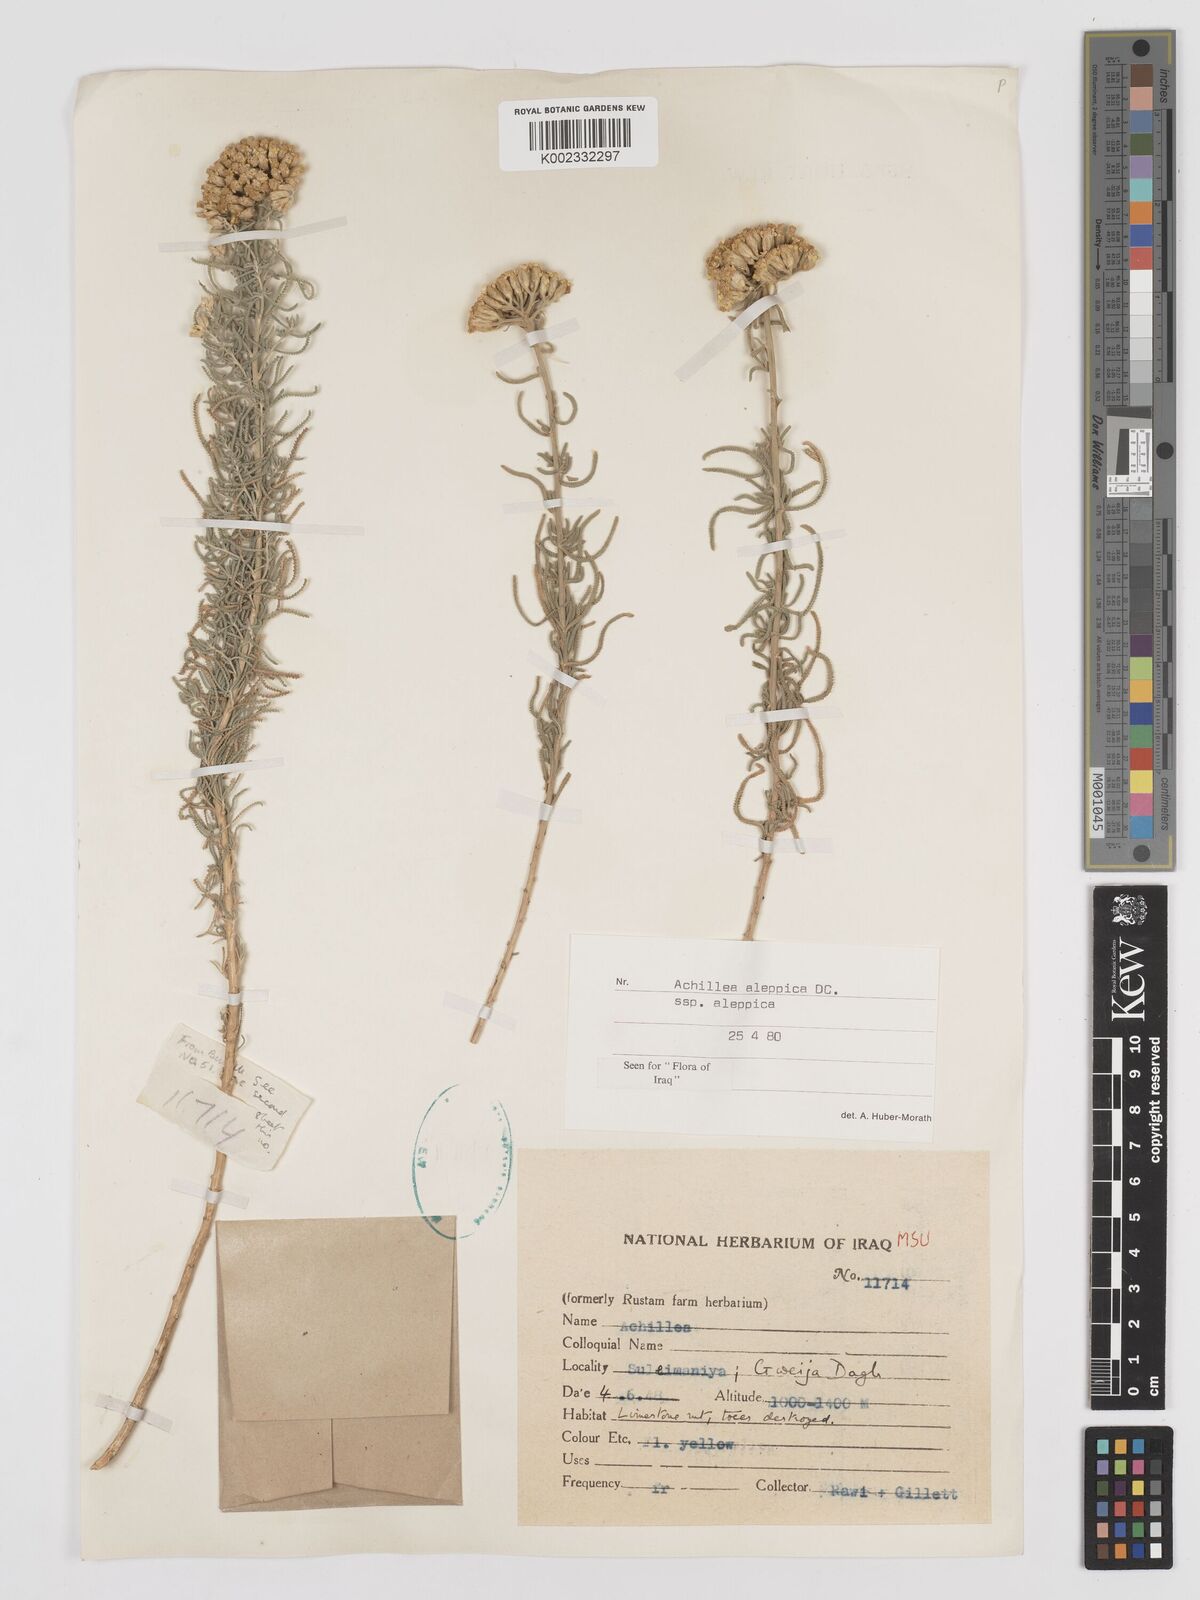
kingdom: Plantae
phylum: Tracheophyta
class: Magnoliopsida
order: Asterales
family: Asteraceae
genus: Achillea
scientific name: Achillea aleppica
